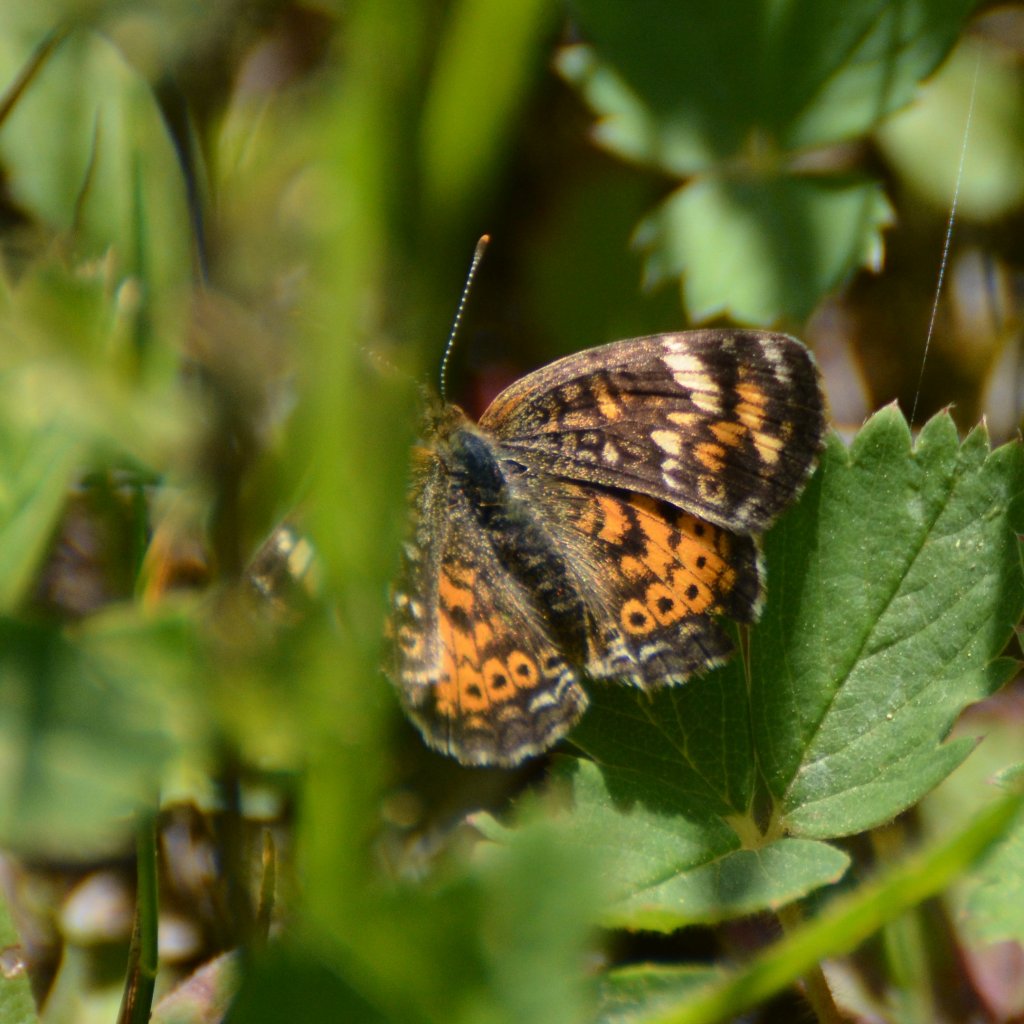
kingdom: Animalia
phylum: Arthropoda
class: Insecta
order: Lepidoptera
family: Nymphalidae
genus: Phyciodes
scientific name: Phyciodes tharos
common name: Northern Crescent
